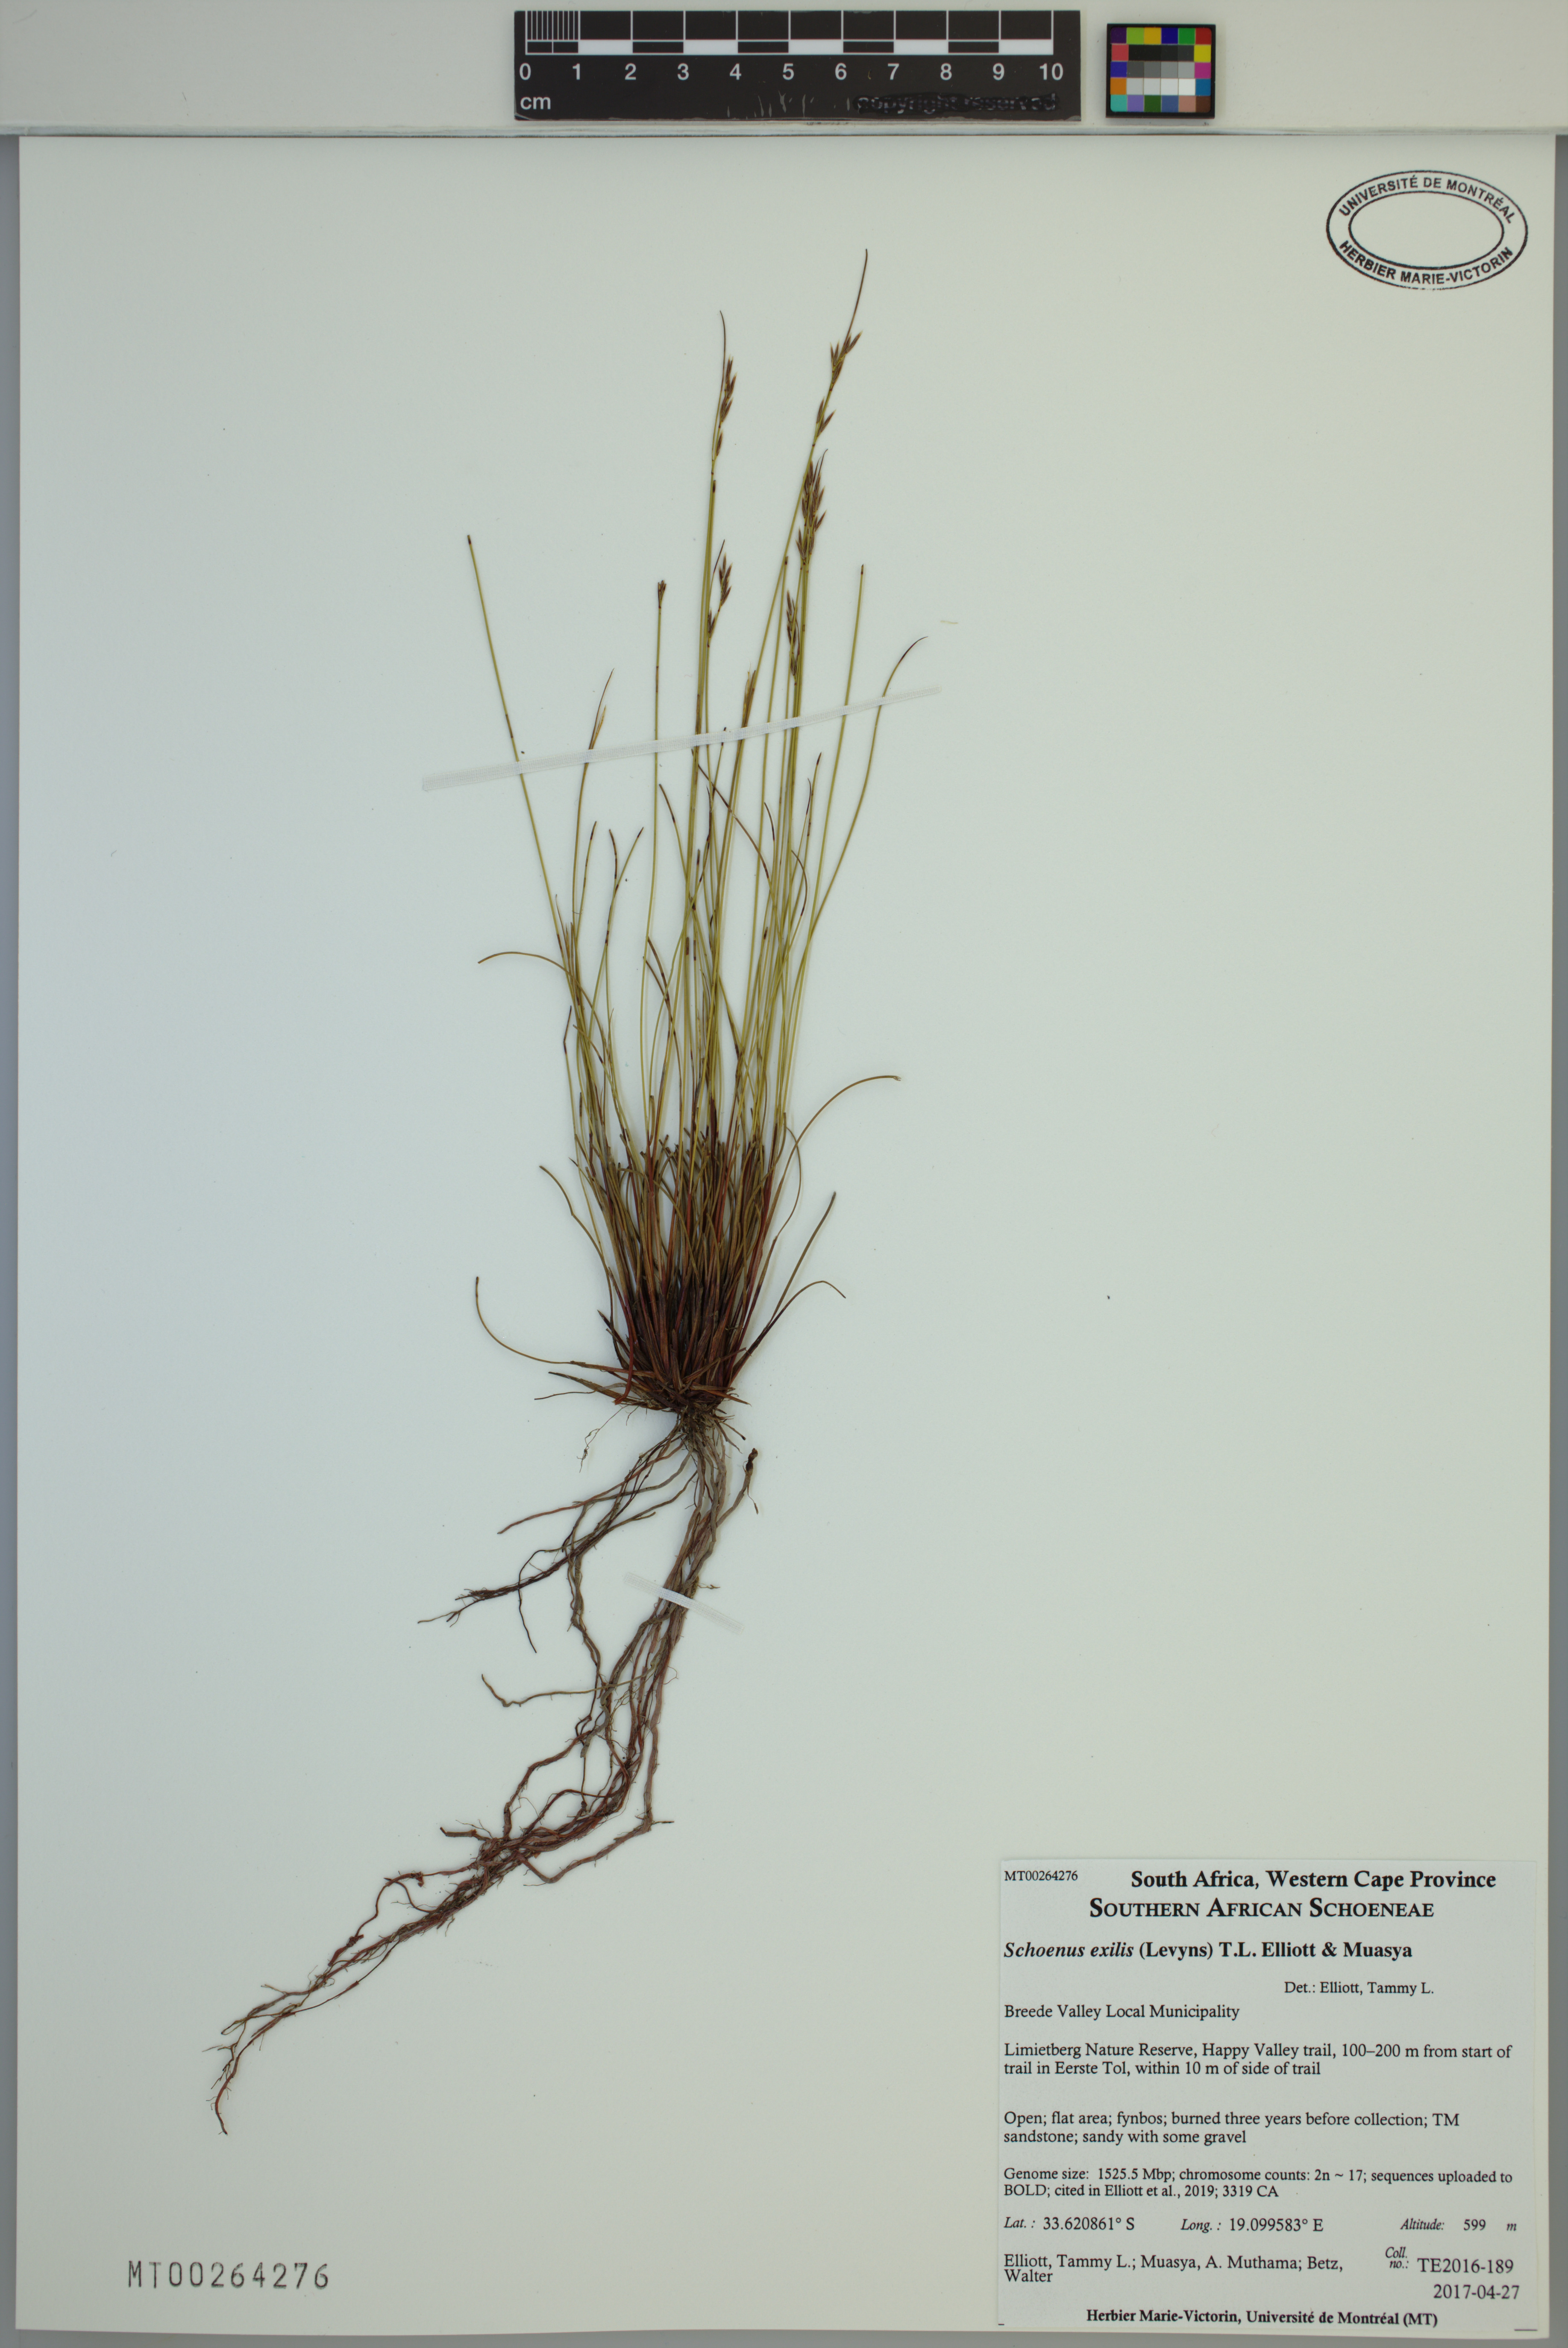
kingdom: Plantae
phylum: Tracheophyta
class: Liliopsida
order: Poales
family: Cyperaceae
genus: Schoenus
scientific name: Schoenus exilis
